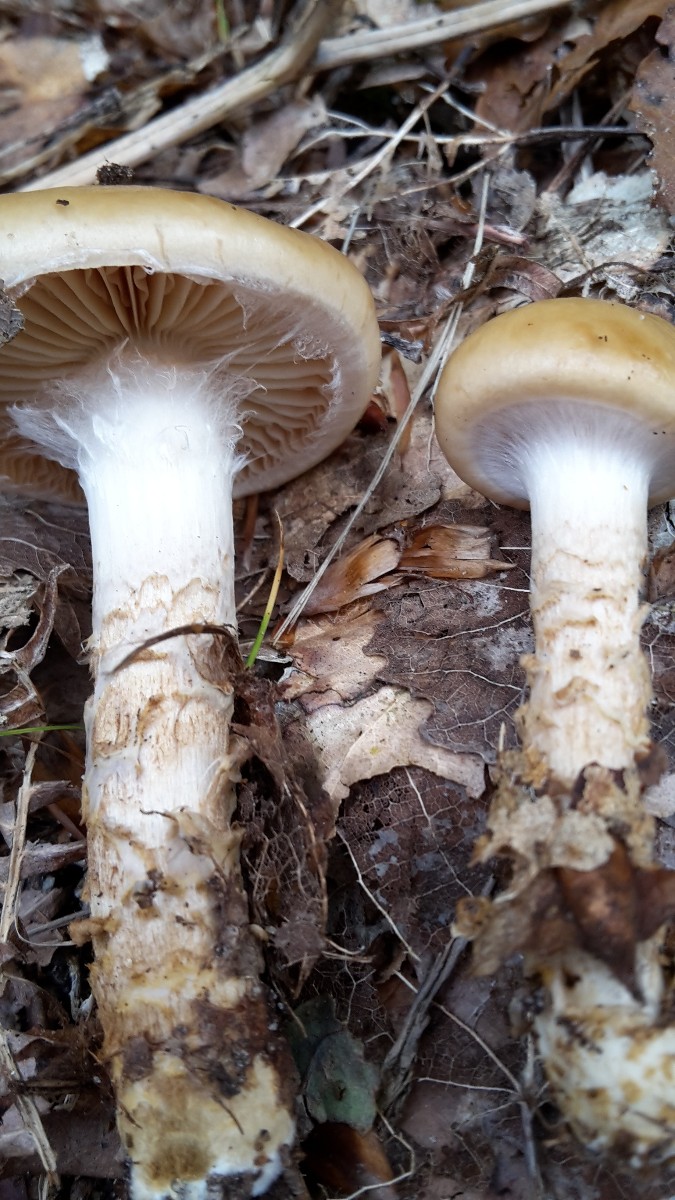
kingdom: Fungi
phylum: Basidiomycota
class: Agaricomycetes
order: Agaricales
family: Cortinariaceae
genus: Cortinarius
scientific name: Cortinarius trivialis
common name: brunslimet slørhat
